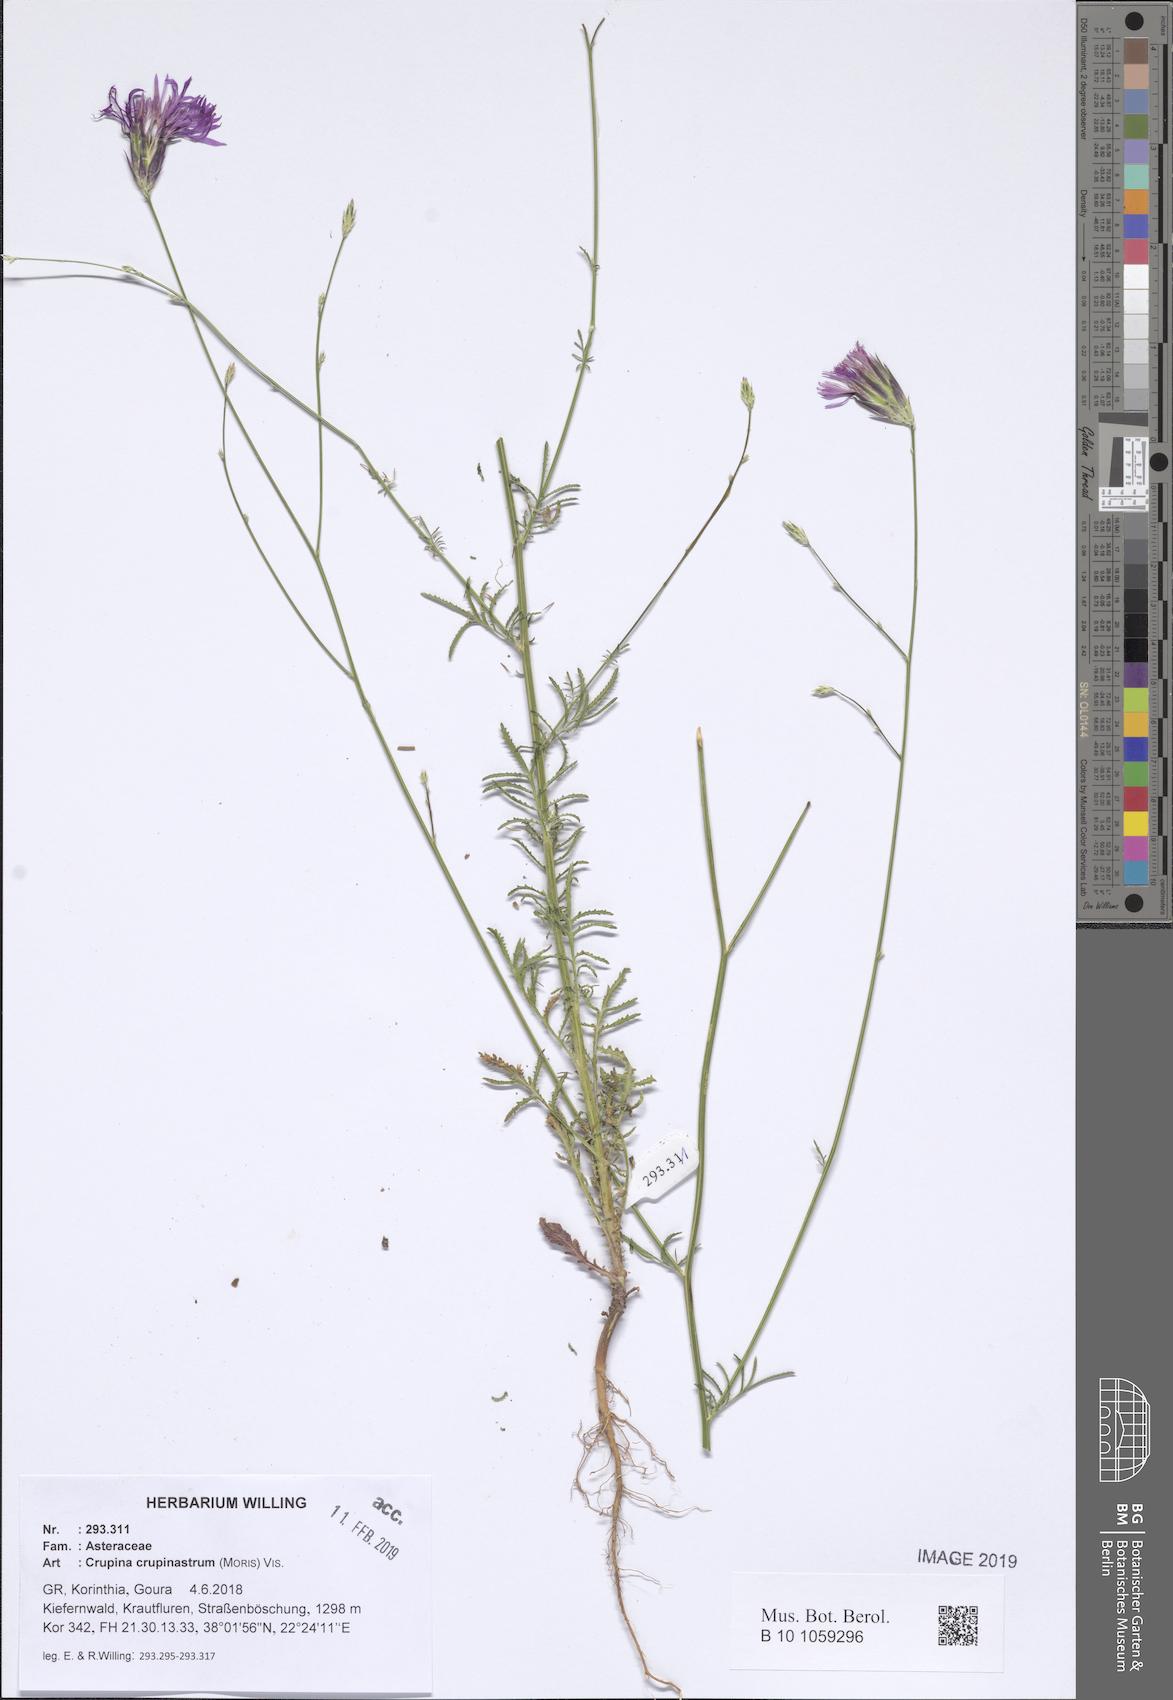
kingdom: Plantae
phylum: Tracheophyta
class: Magnoliopsida
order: Asterales
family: Asteraceae
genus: Crupina
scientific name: Crupina crupinastrum
